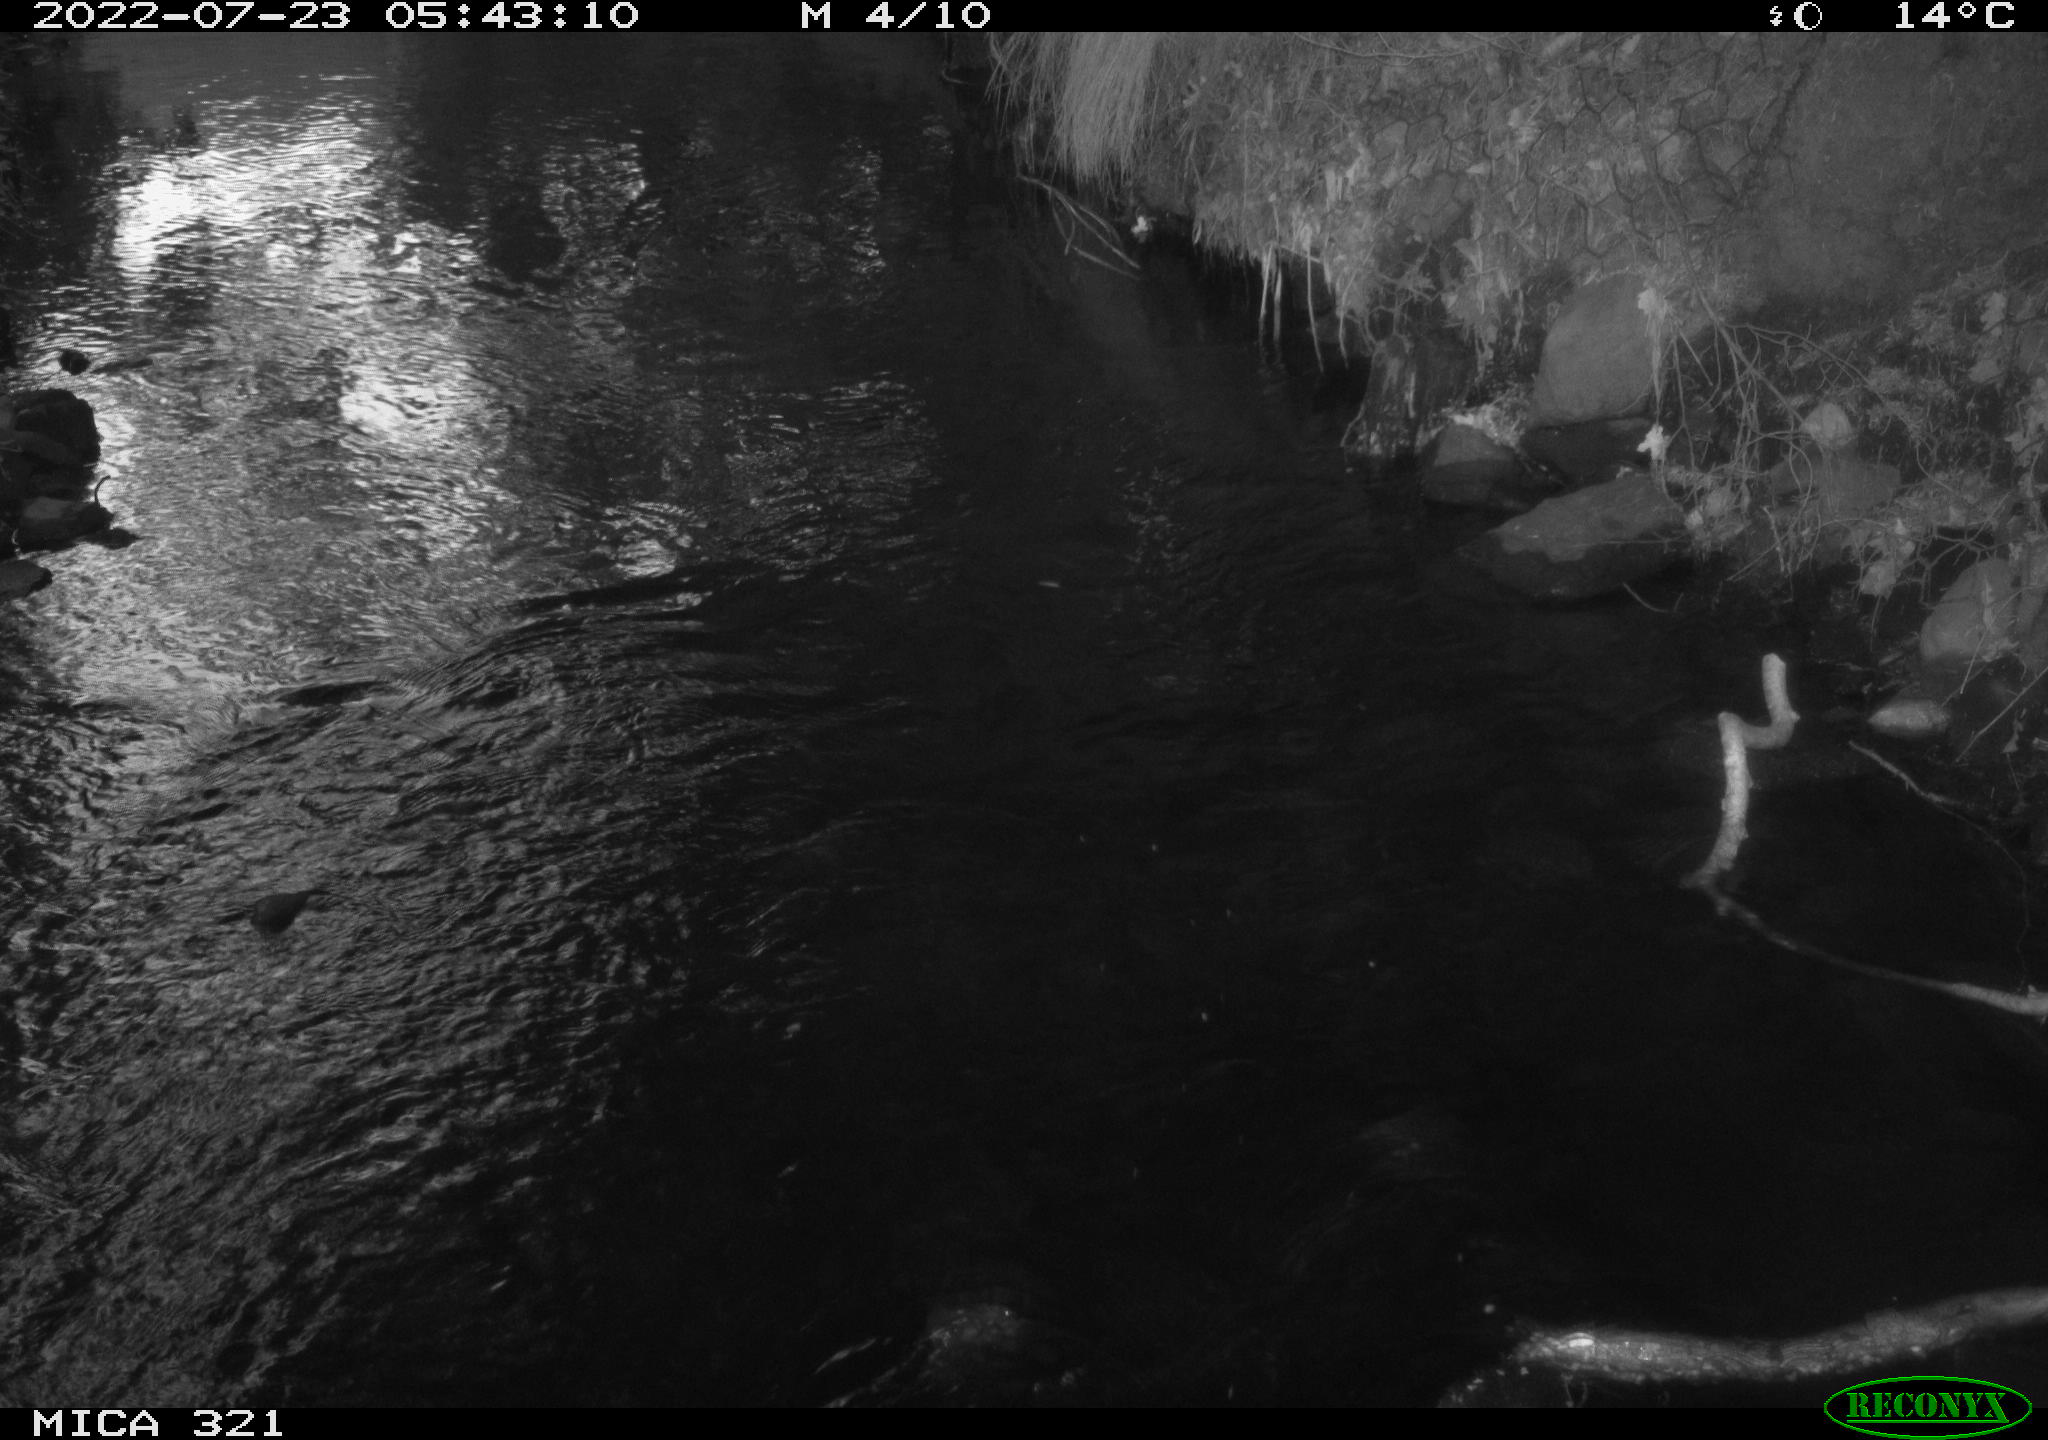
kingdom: Animalia
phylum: Chordata
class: Aves
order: Anseriformes
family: Anatidae
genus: Anas
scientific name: Anas platyrhynchos
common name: Mallard
